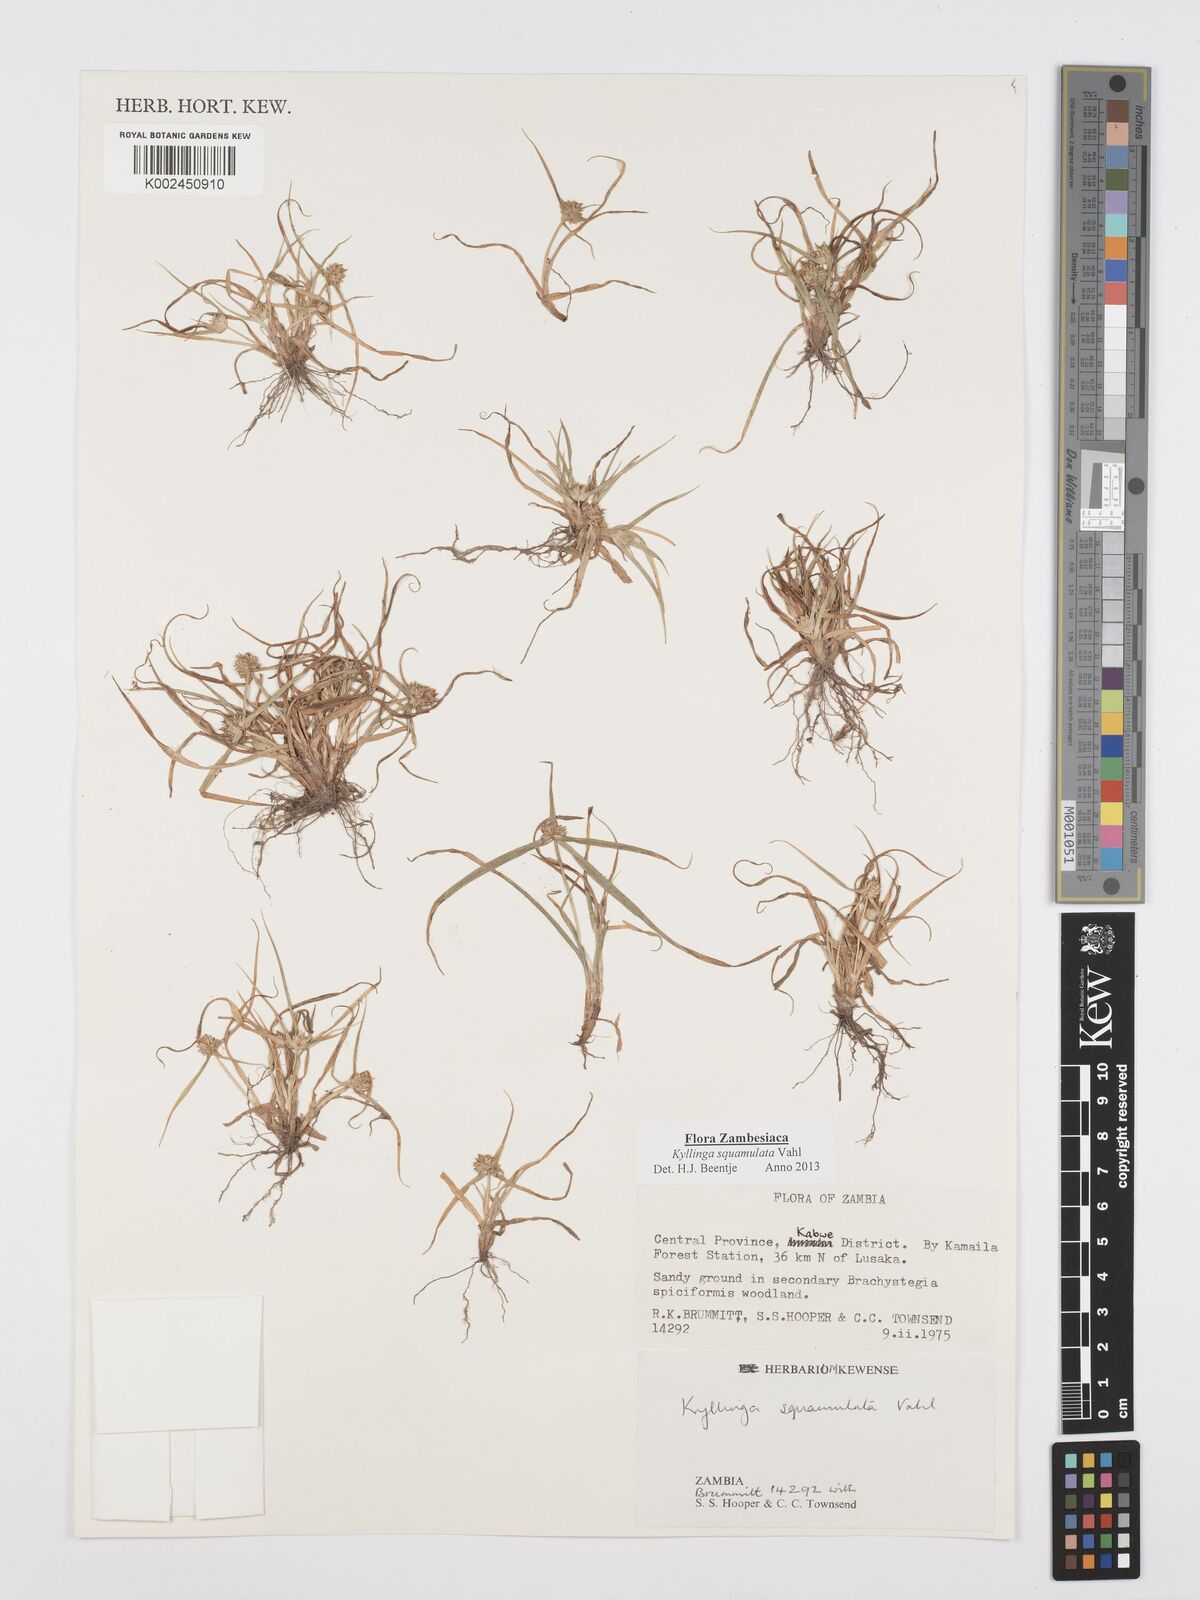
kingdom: Plantae
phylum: Tracheophyta
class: Liliopsida
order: Poales
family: Cyperaceae
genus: Cyperus
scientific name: Cyperus distans
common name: Slender cyperus
